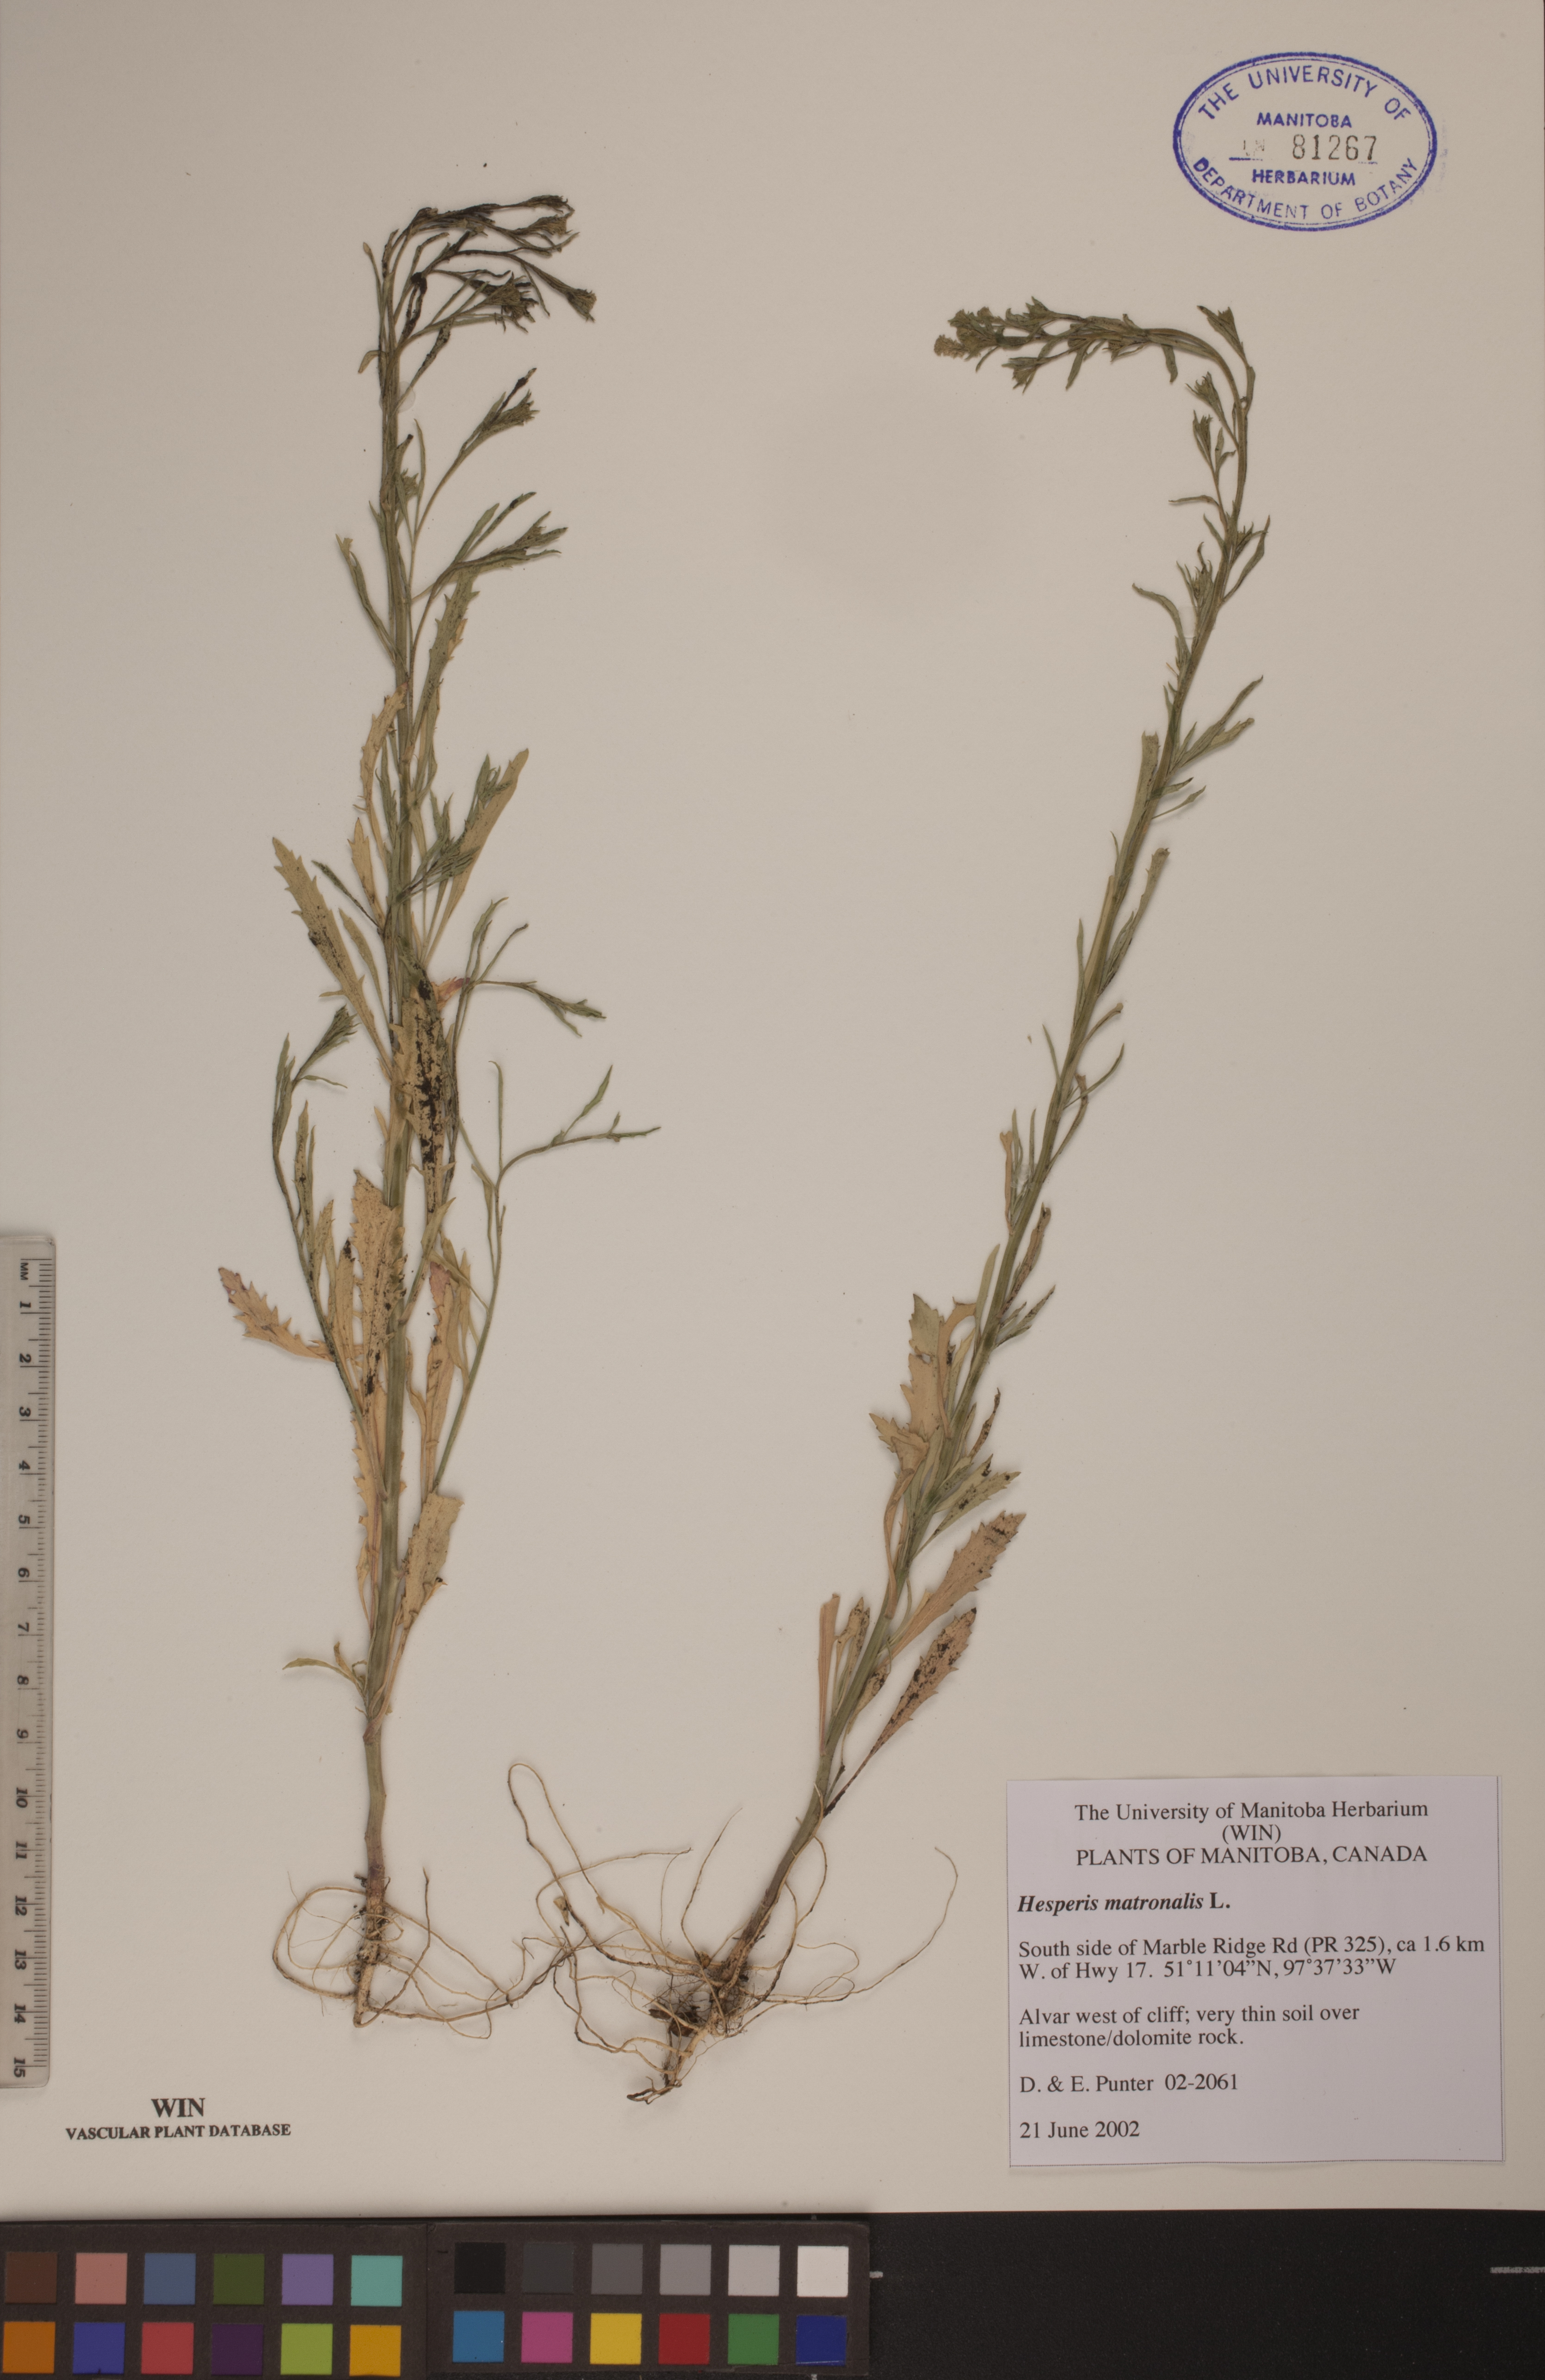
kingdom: Plantae
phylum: Tracheophyta
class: Magnoliopsida
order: Brassicales
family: Brassicaceae
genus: Hesperis
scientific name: Hesperis matronalis
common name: Dame's-violet
